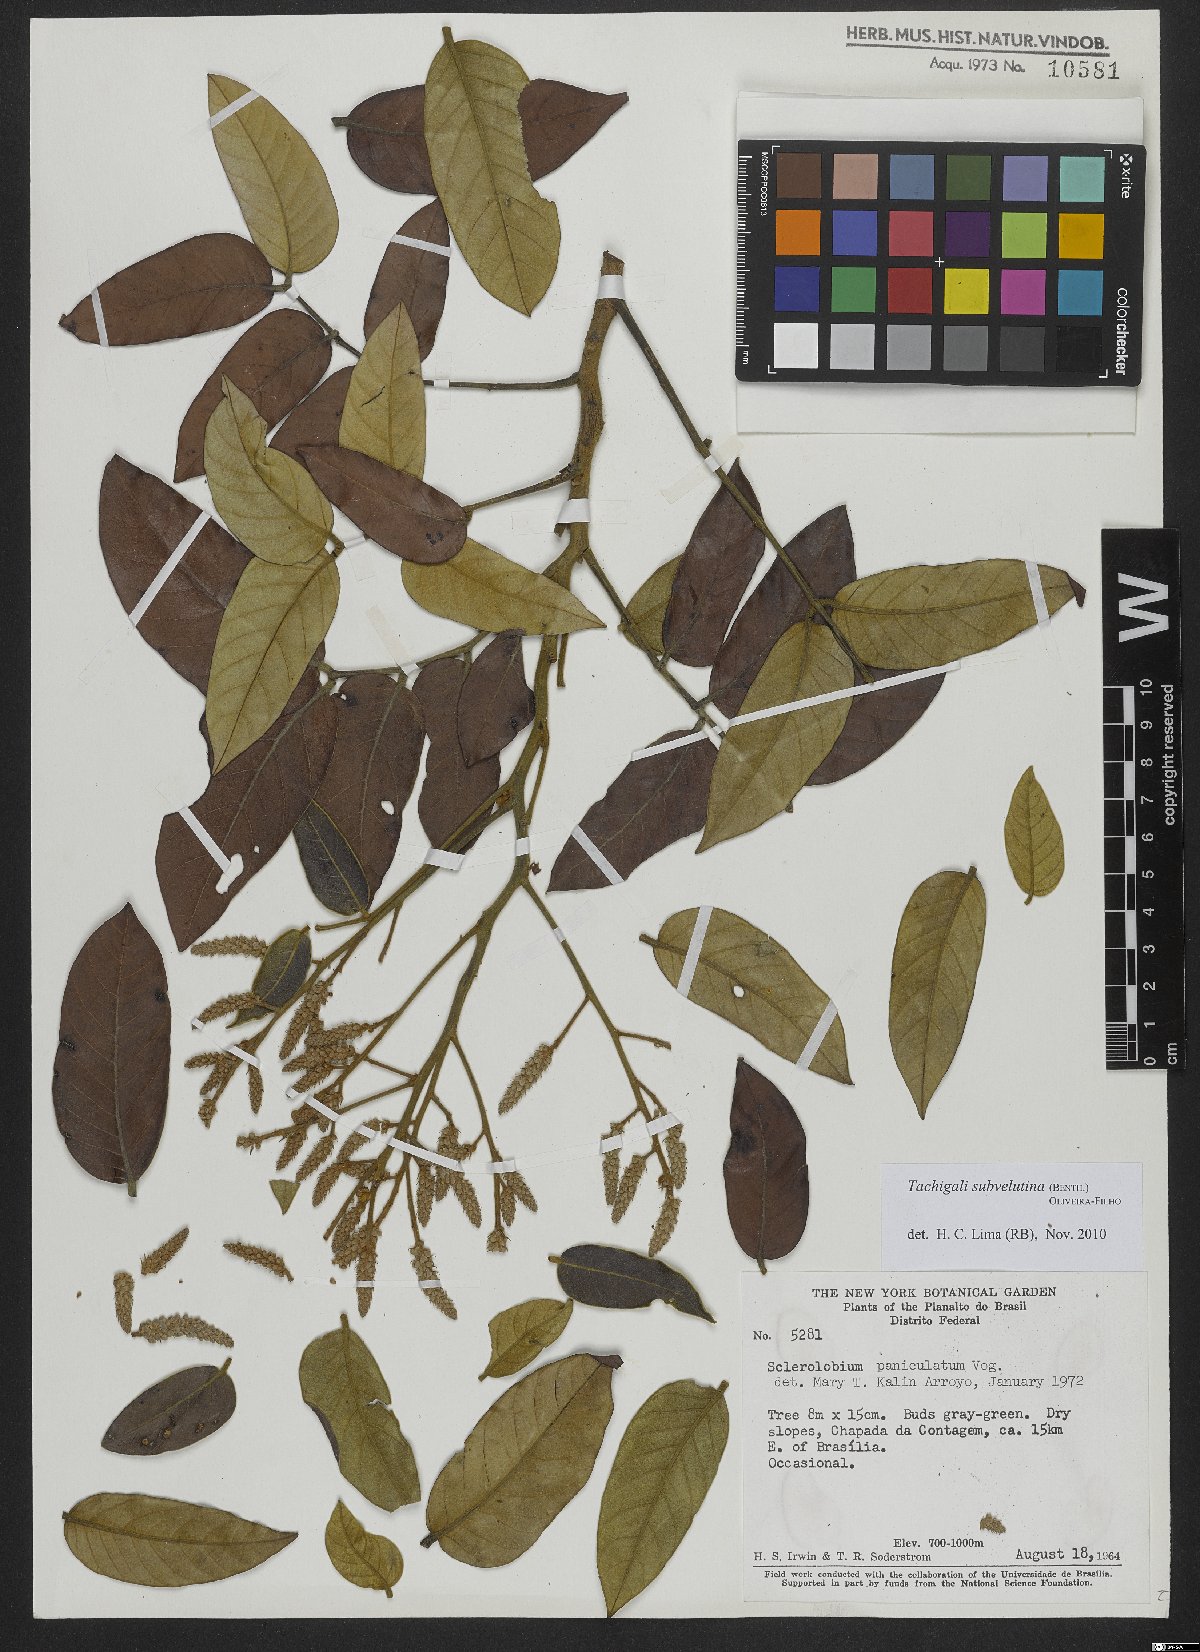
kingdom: Plantae
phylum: Tracheophyta
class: Magnoliopsida
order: Fabales
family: Fabaceae
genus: Tachigali
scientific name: Tachigali subvelutina
